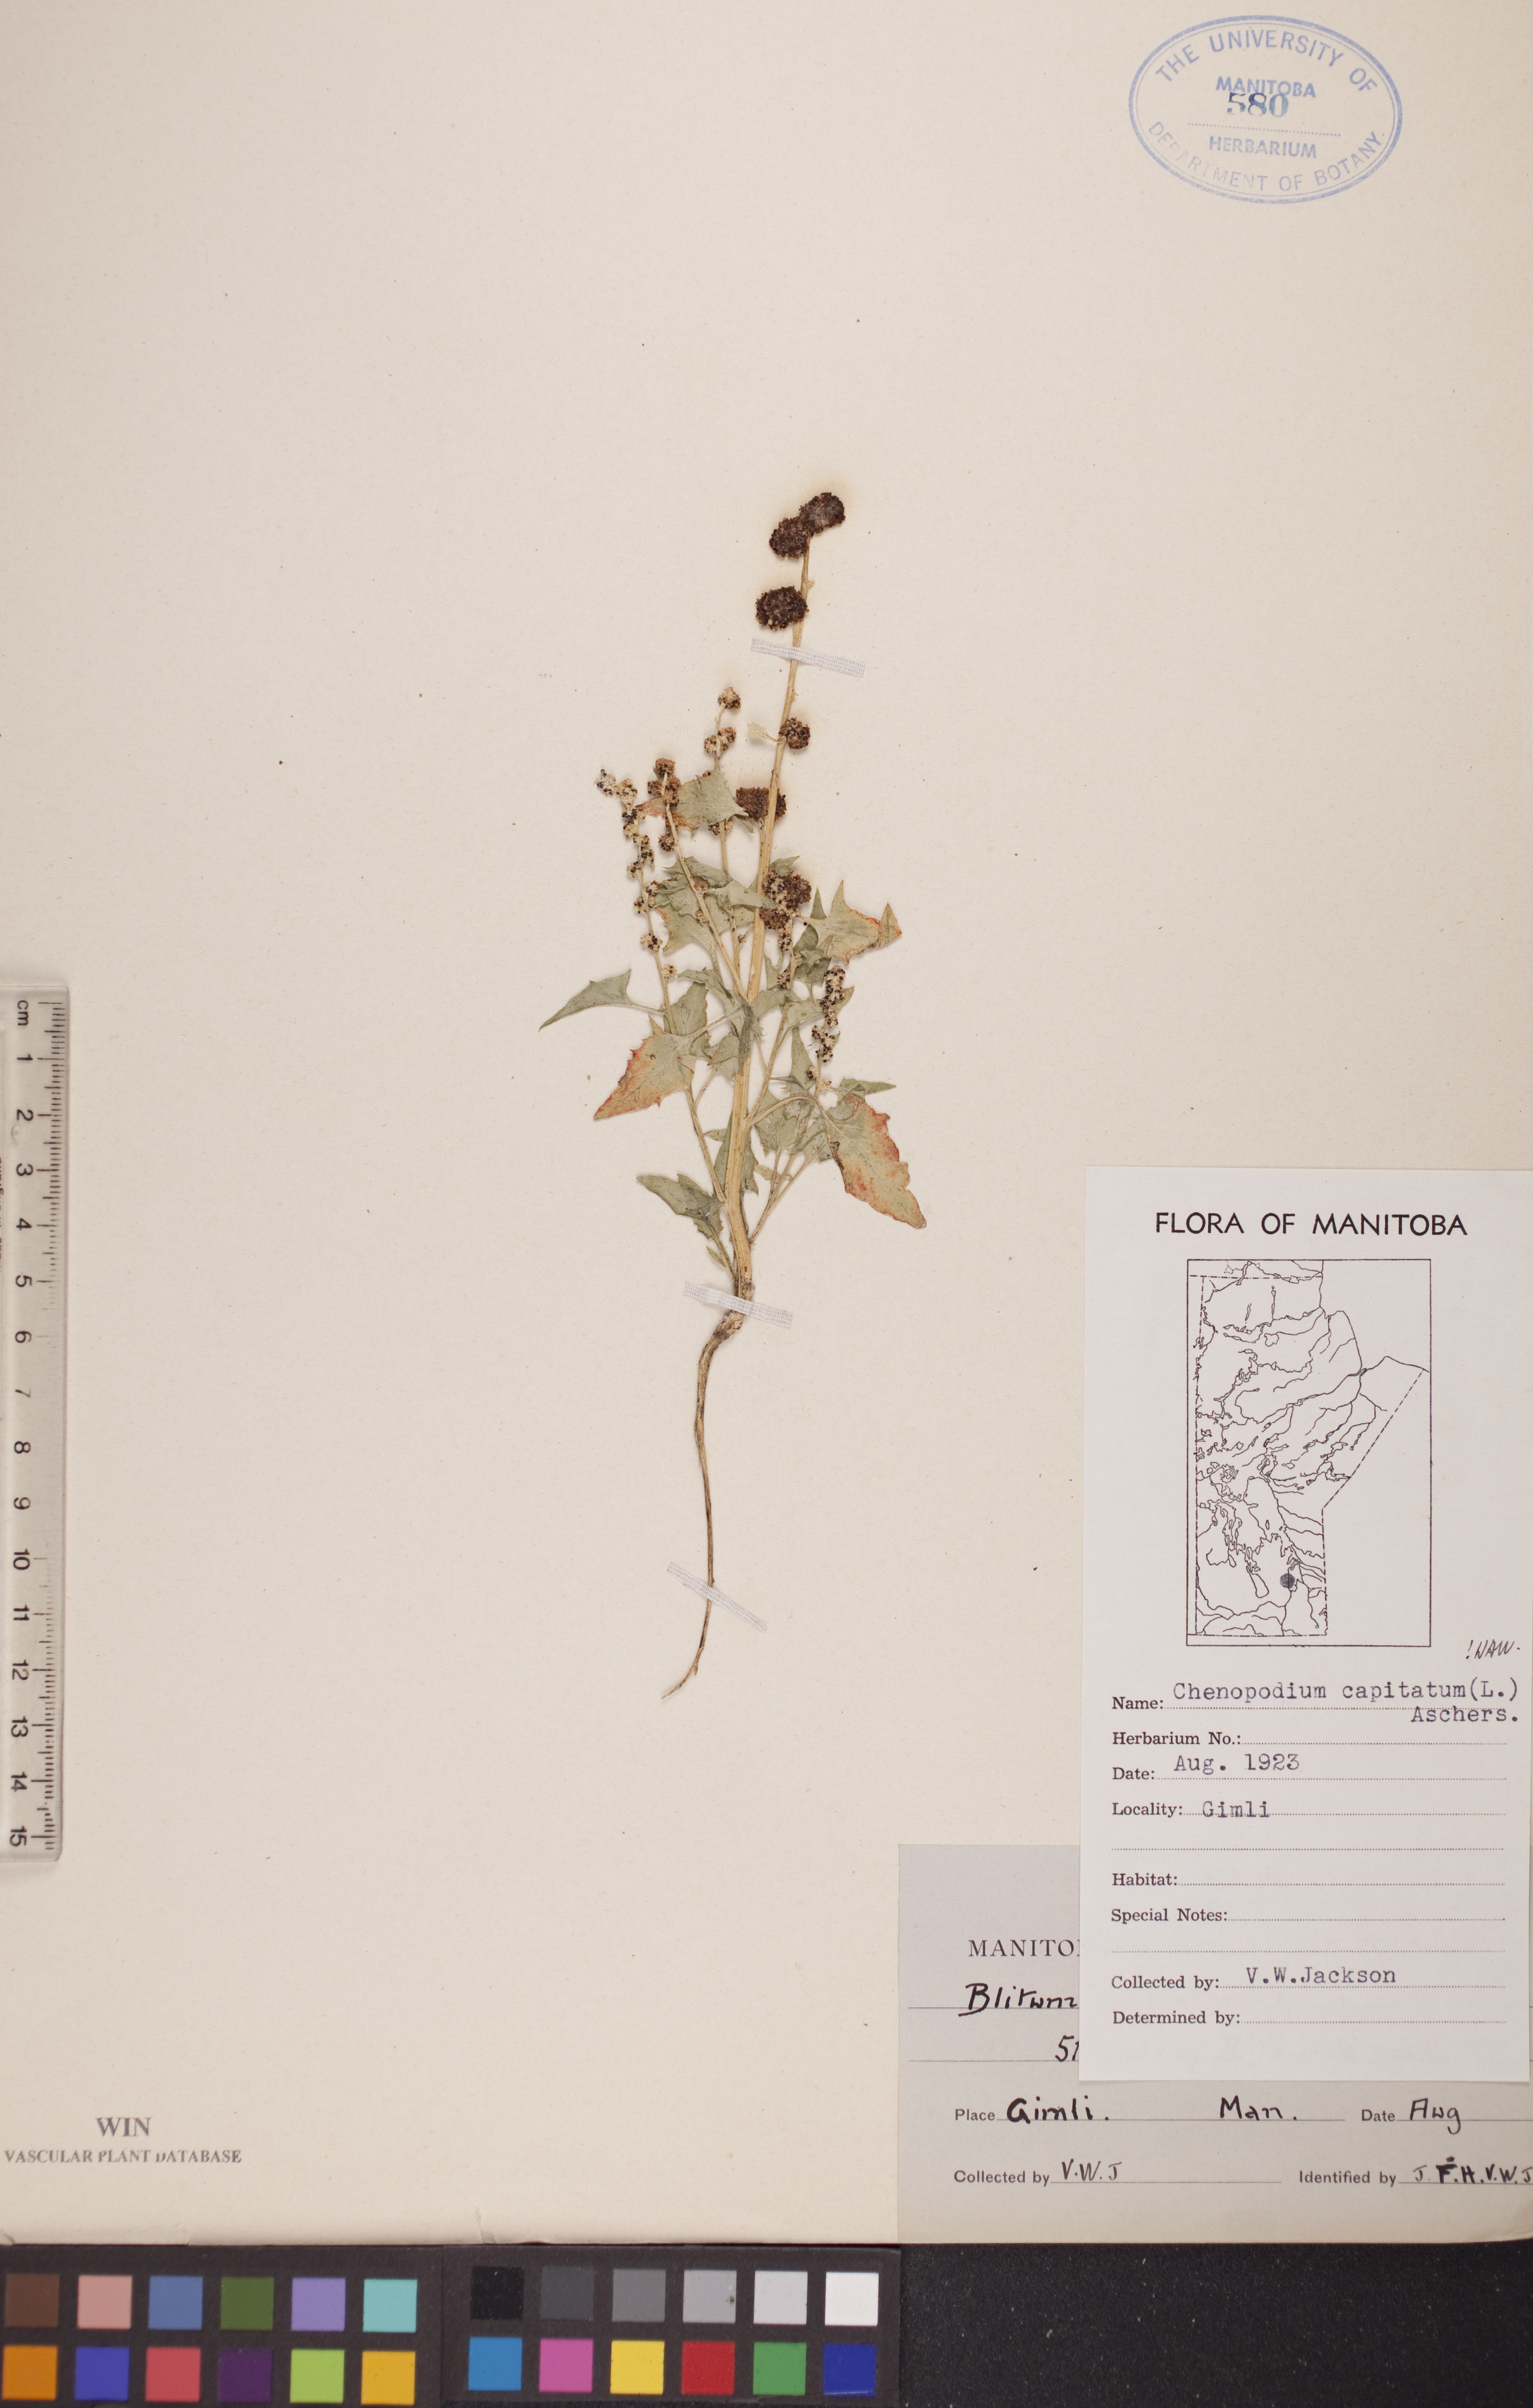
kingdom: Plantae
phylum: Tracheophyta
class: Magnoliopsida
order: Caryophyllales
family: Amaranthaceae
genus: Blitum
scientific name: Blitum capitatum
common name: Strawberry-blight
